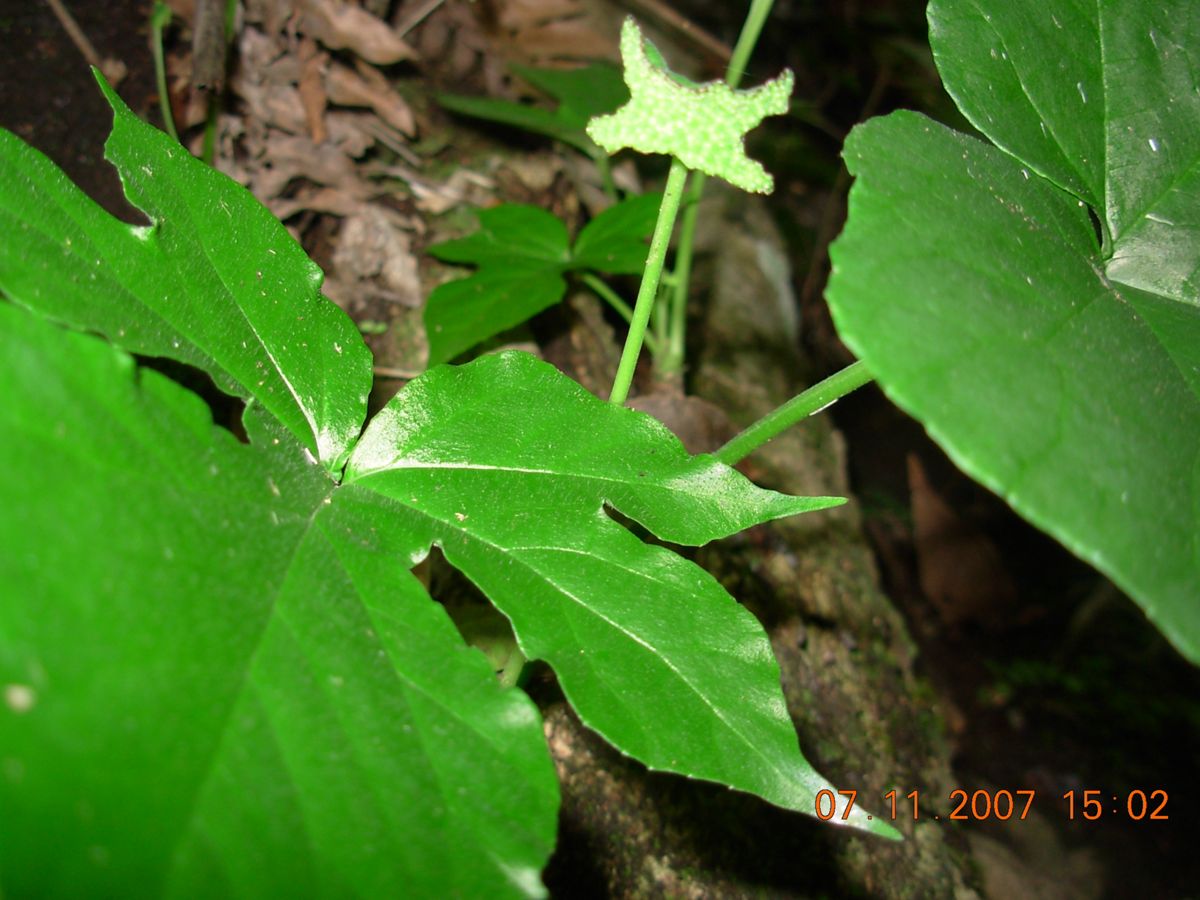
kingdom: Plantae
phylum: Tracheophyta
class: Magnoliopsida
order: Rosales
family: Moraceae
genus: Dorstenia
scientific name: Dorstenia contrajerva
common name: Tusilla
